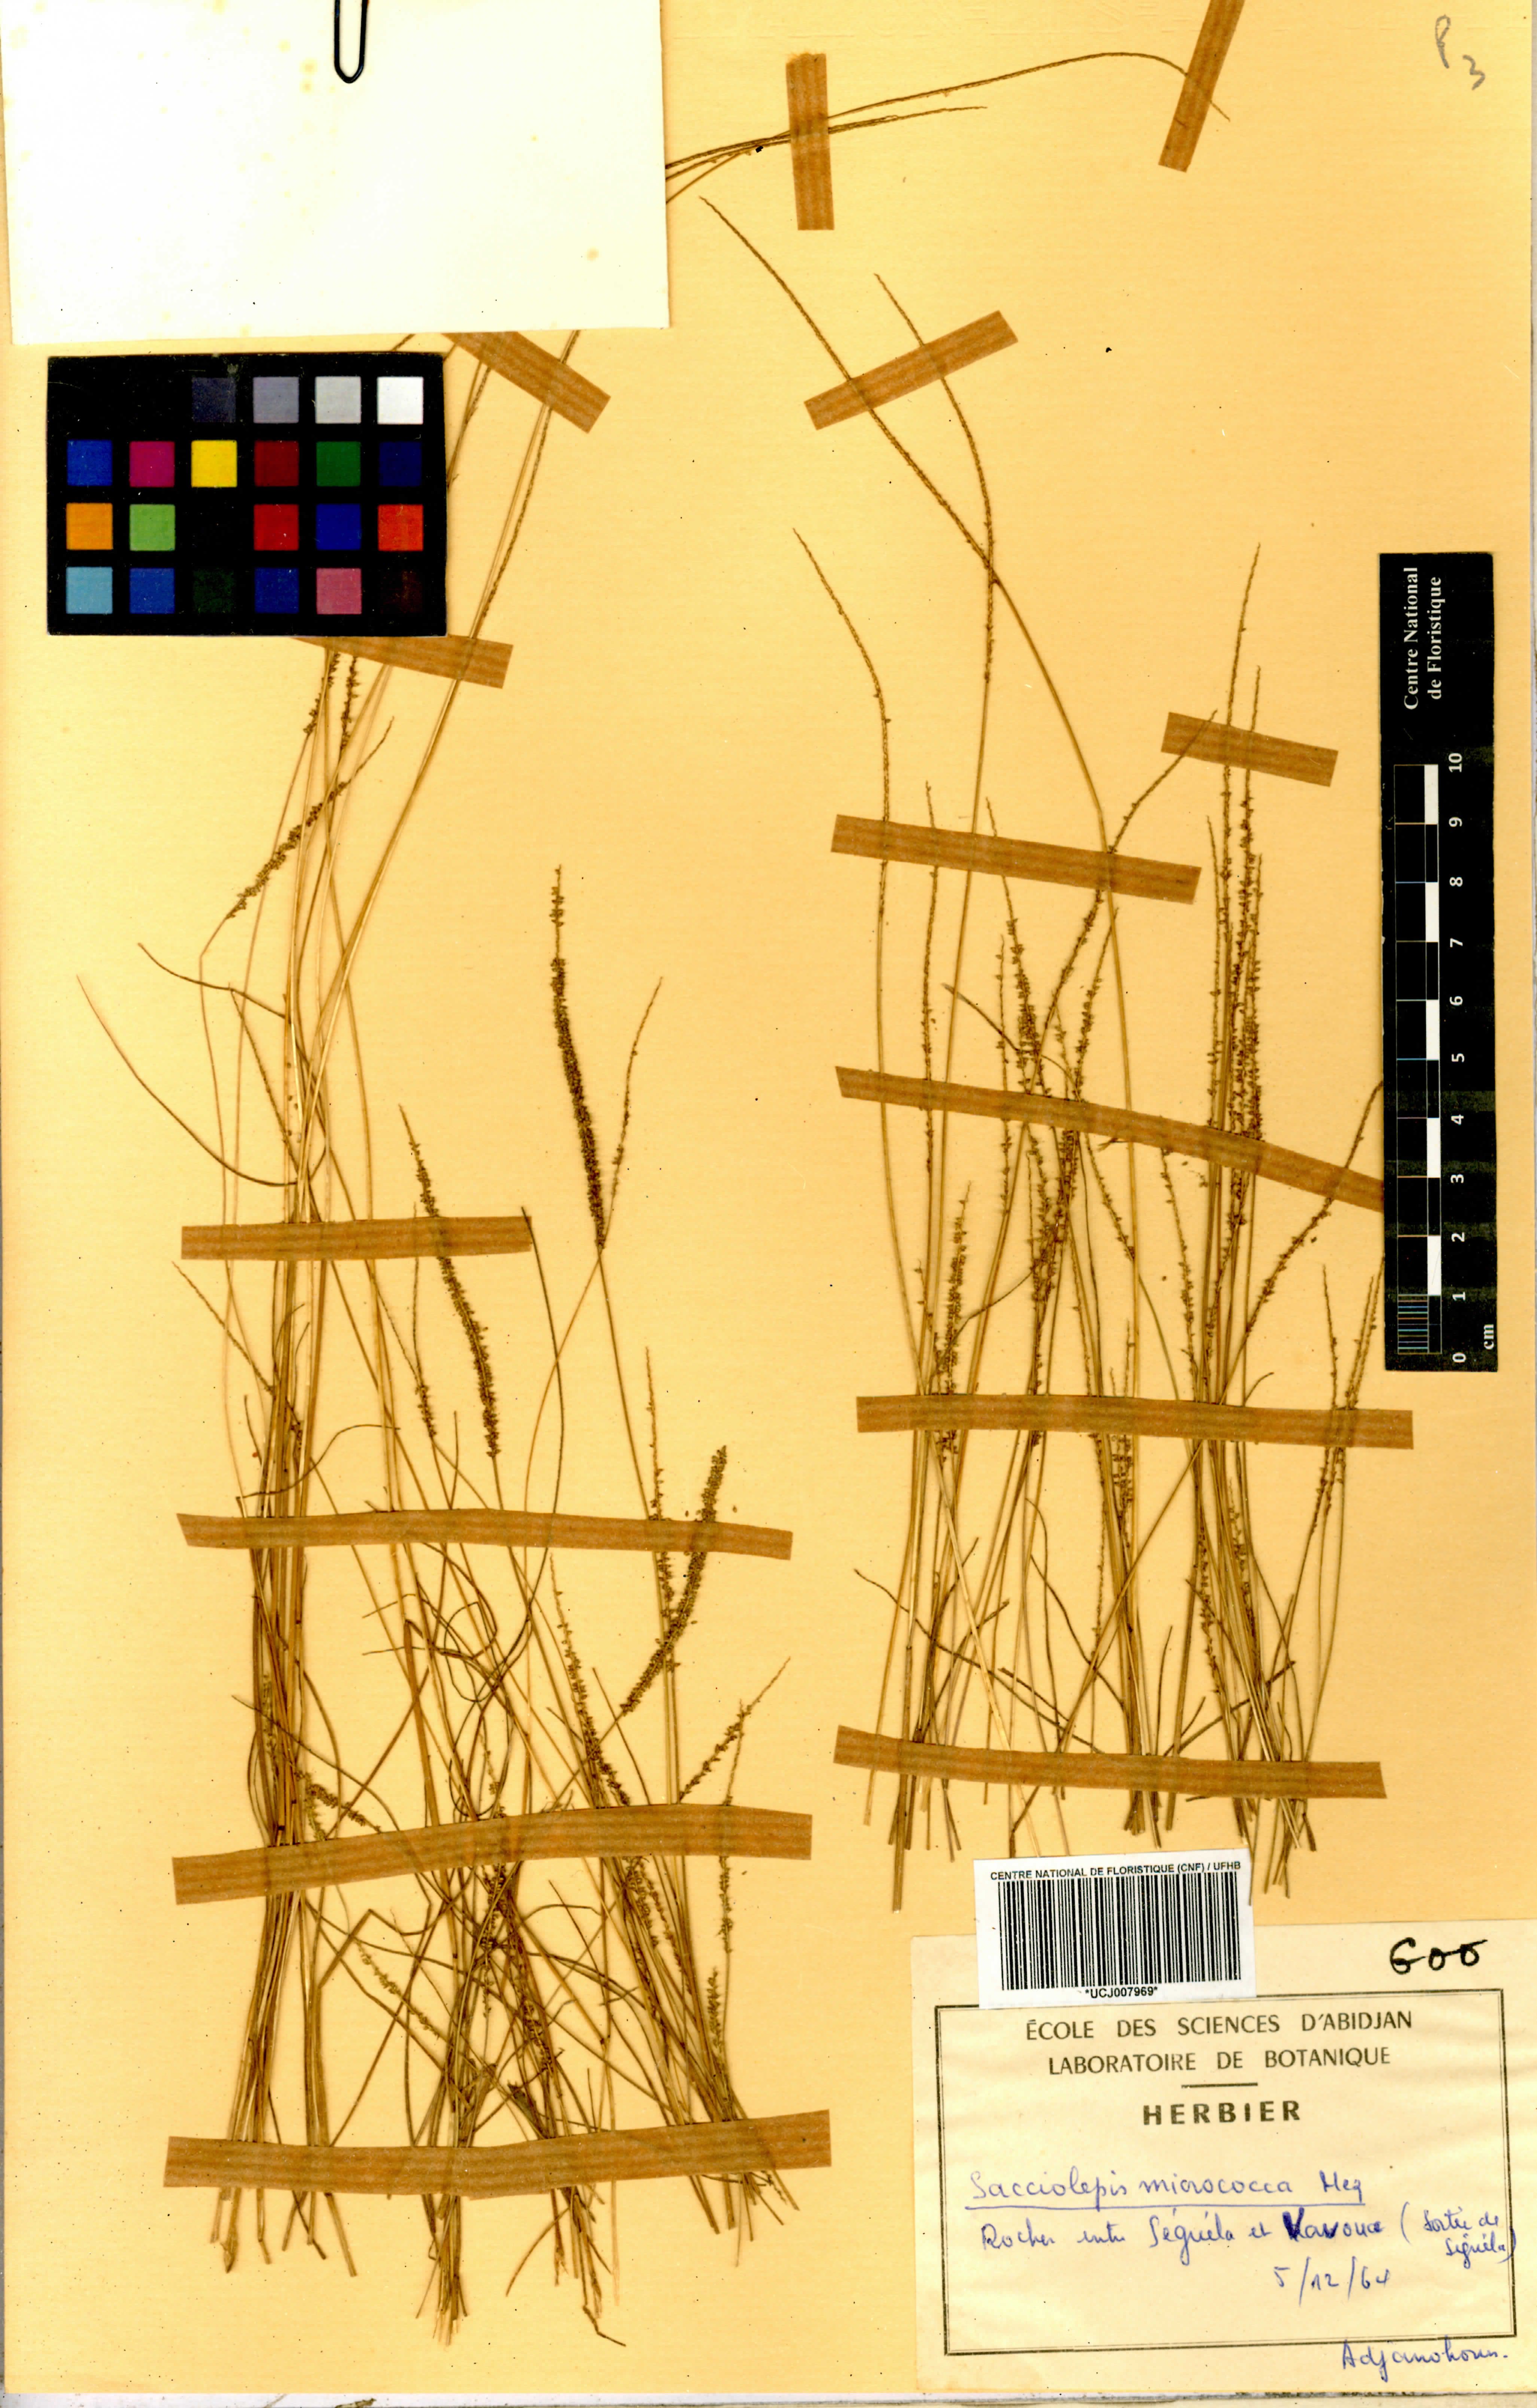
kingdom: Plantae
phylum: Tracheophyta
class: Liliopsida
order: Poales
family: Poaceae
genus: Sacciolepis
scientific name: Sacciolepis micrococca
